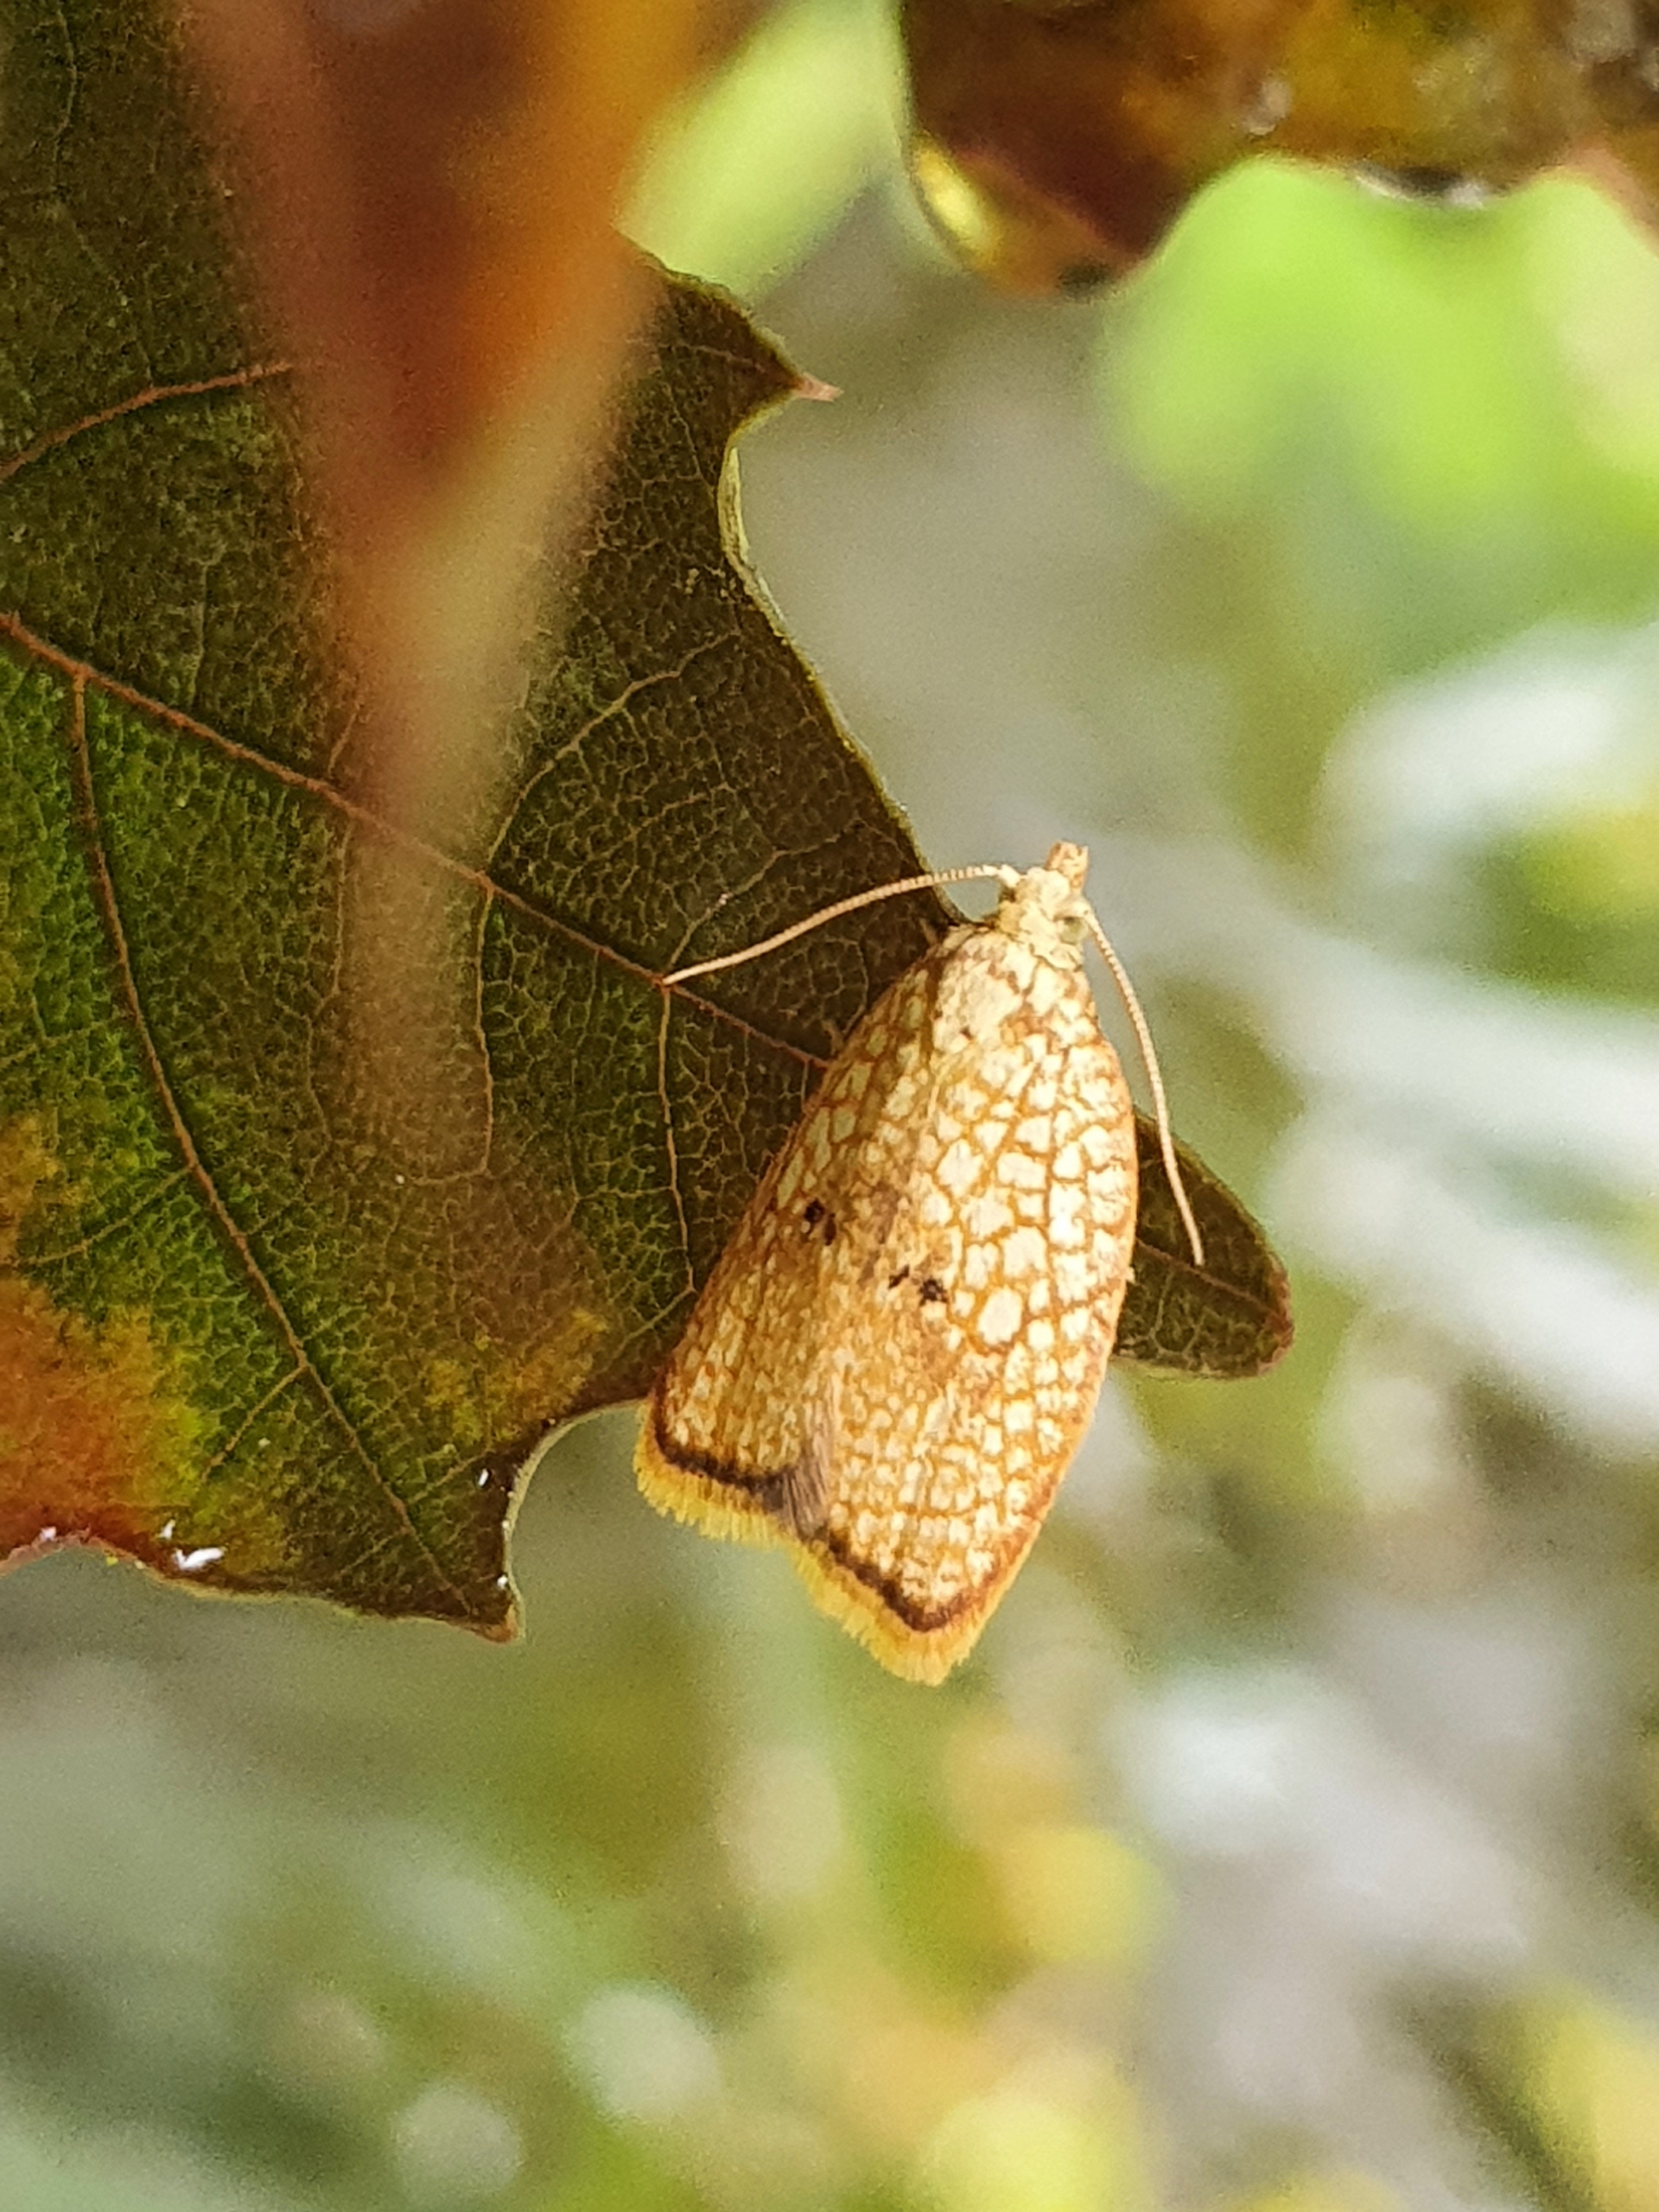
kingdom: Animalia
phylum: Arthropoda
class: Insecta
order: Lepidoptera
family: Tortricidae
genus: Acleris
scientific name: Acleris forsskaleana
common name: Gul ahornvikler
